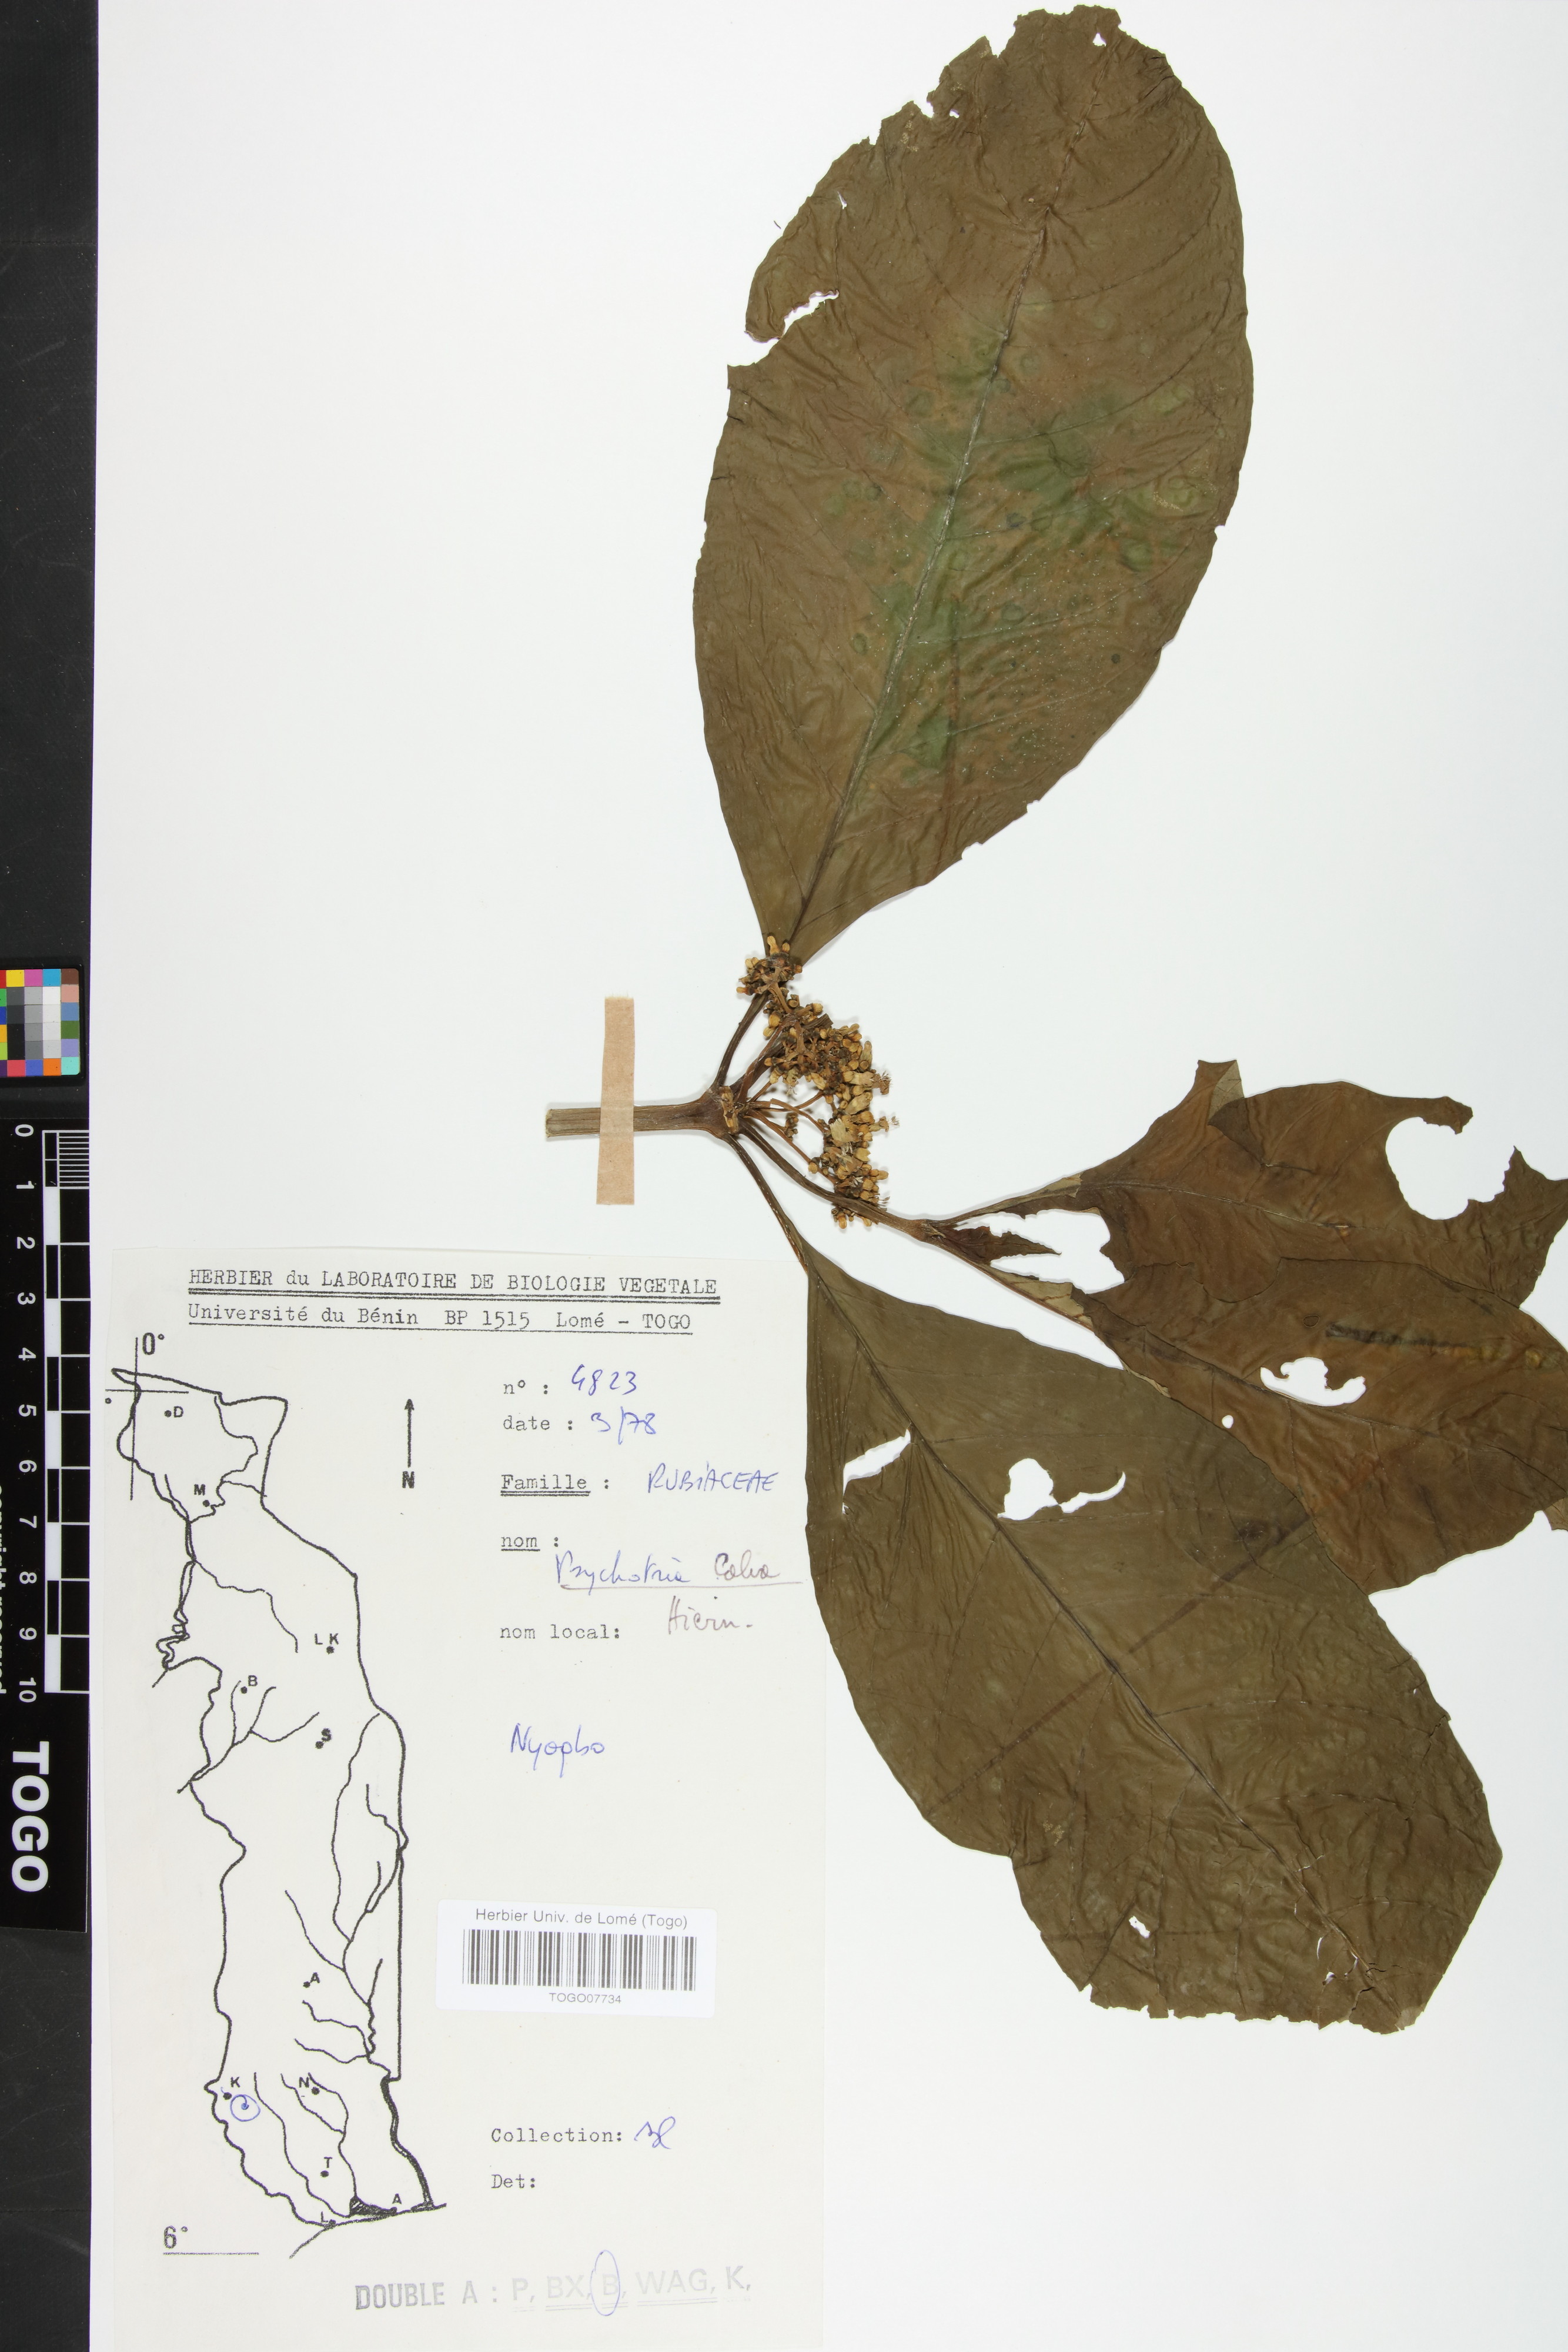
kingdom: Plantae
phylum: Tracheophyta
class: Magnoliopsida
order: Gentianales
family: Rubiaceae
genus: Psychotria
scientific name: Psychotria calva
